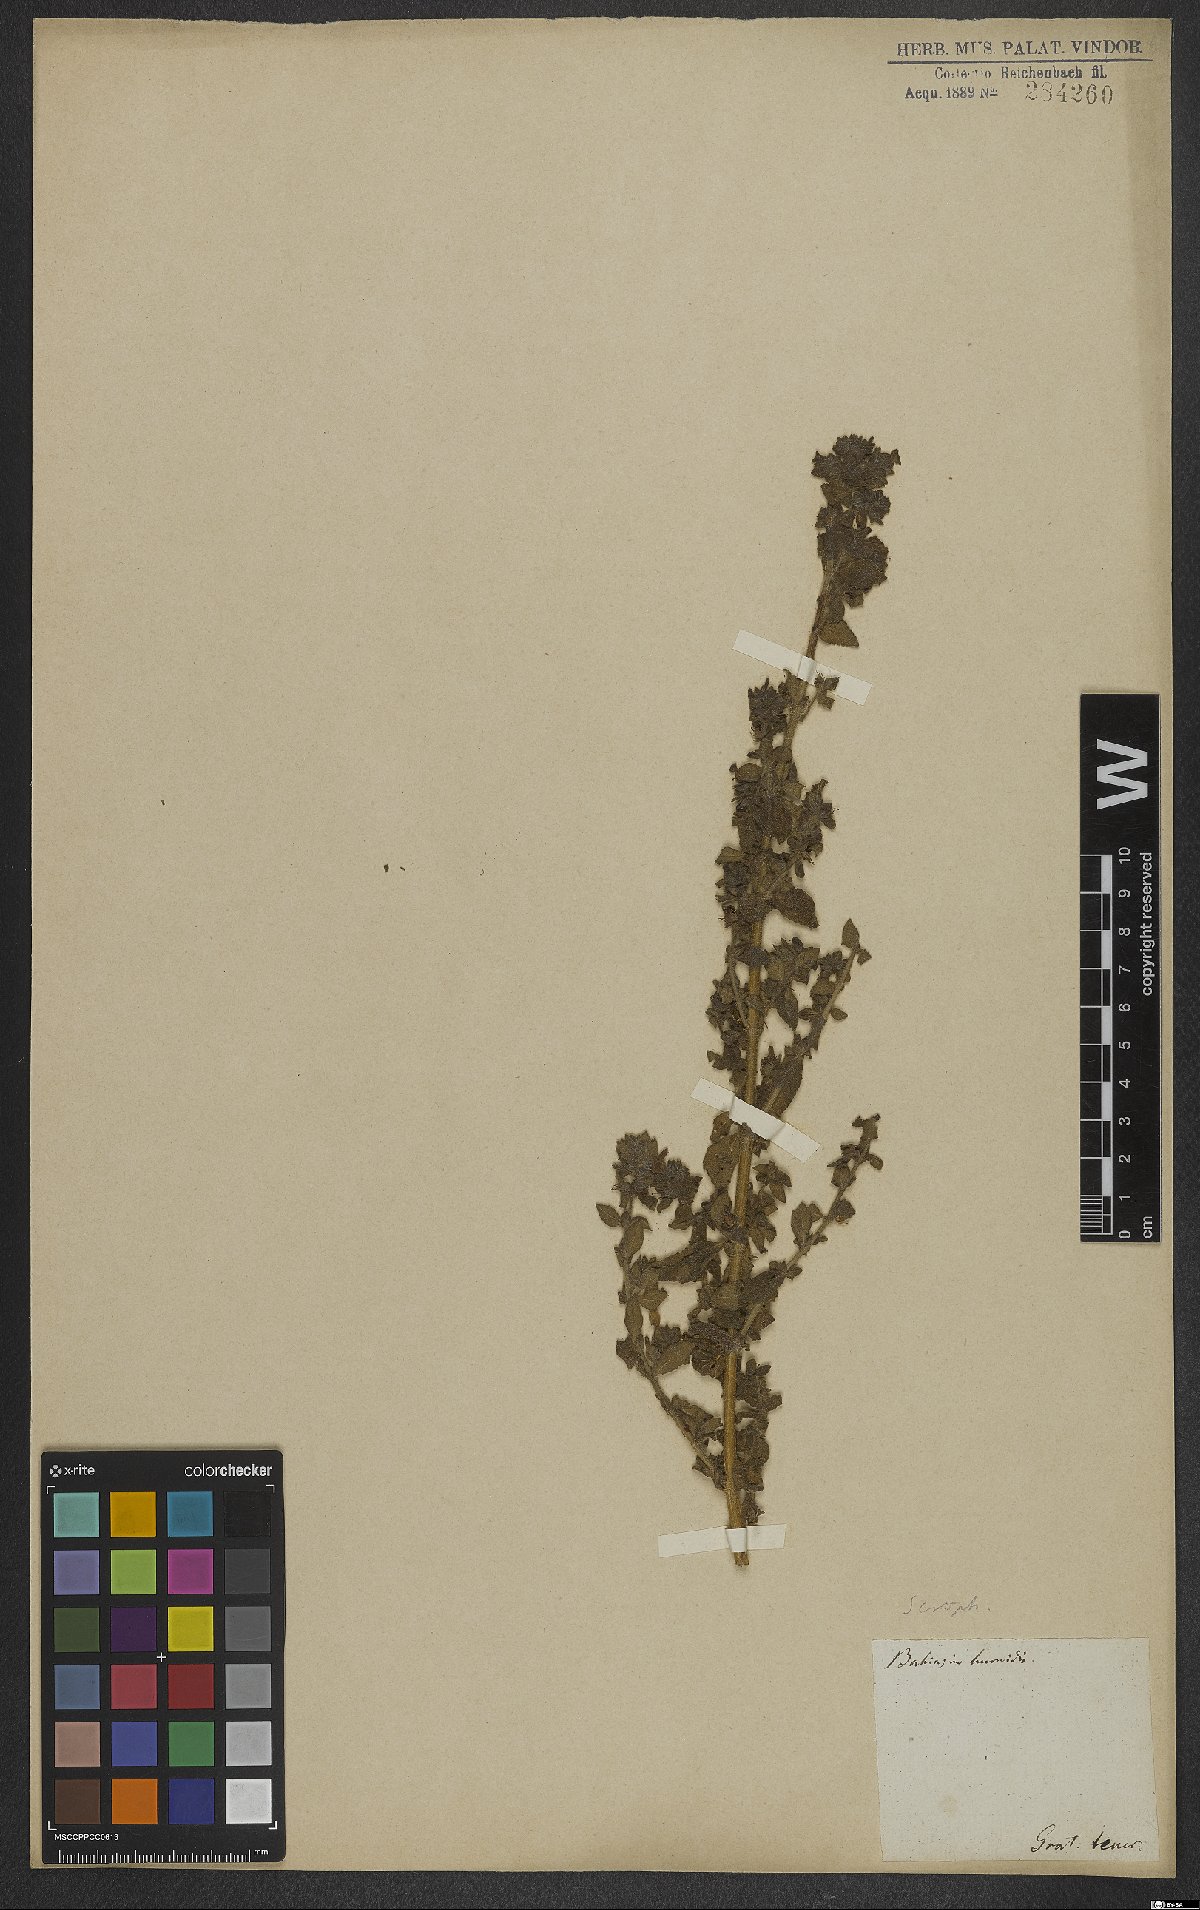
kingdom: Plantae
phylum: Tracheophyta
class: Magnoliopsida
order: Lamiales
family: Scrophulariaceae
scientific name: Scrophulariaceae
